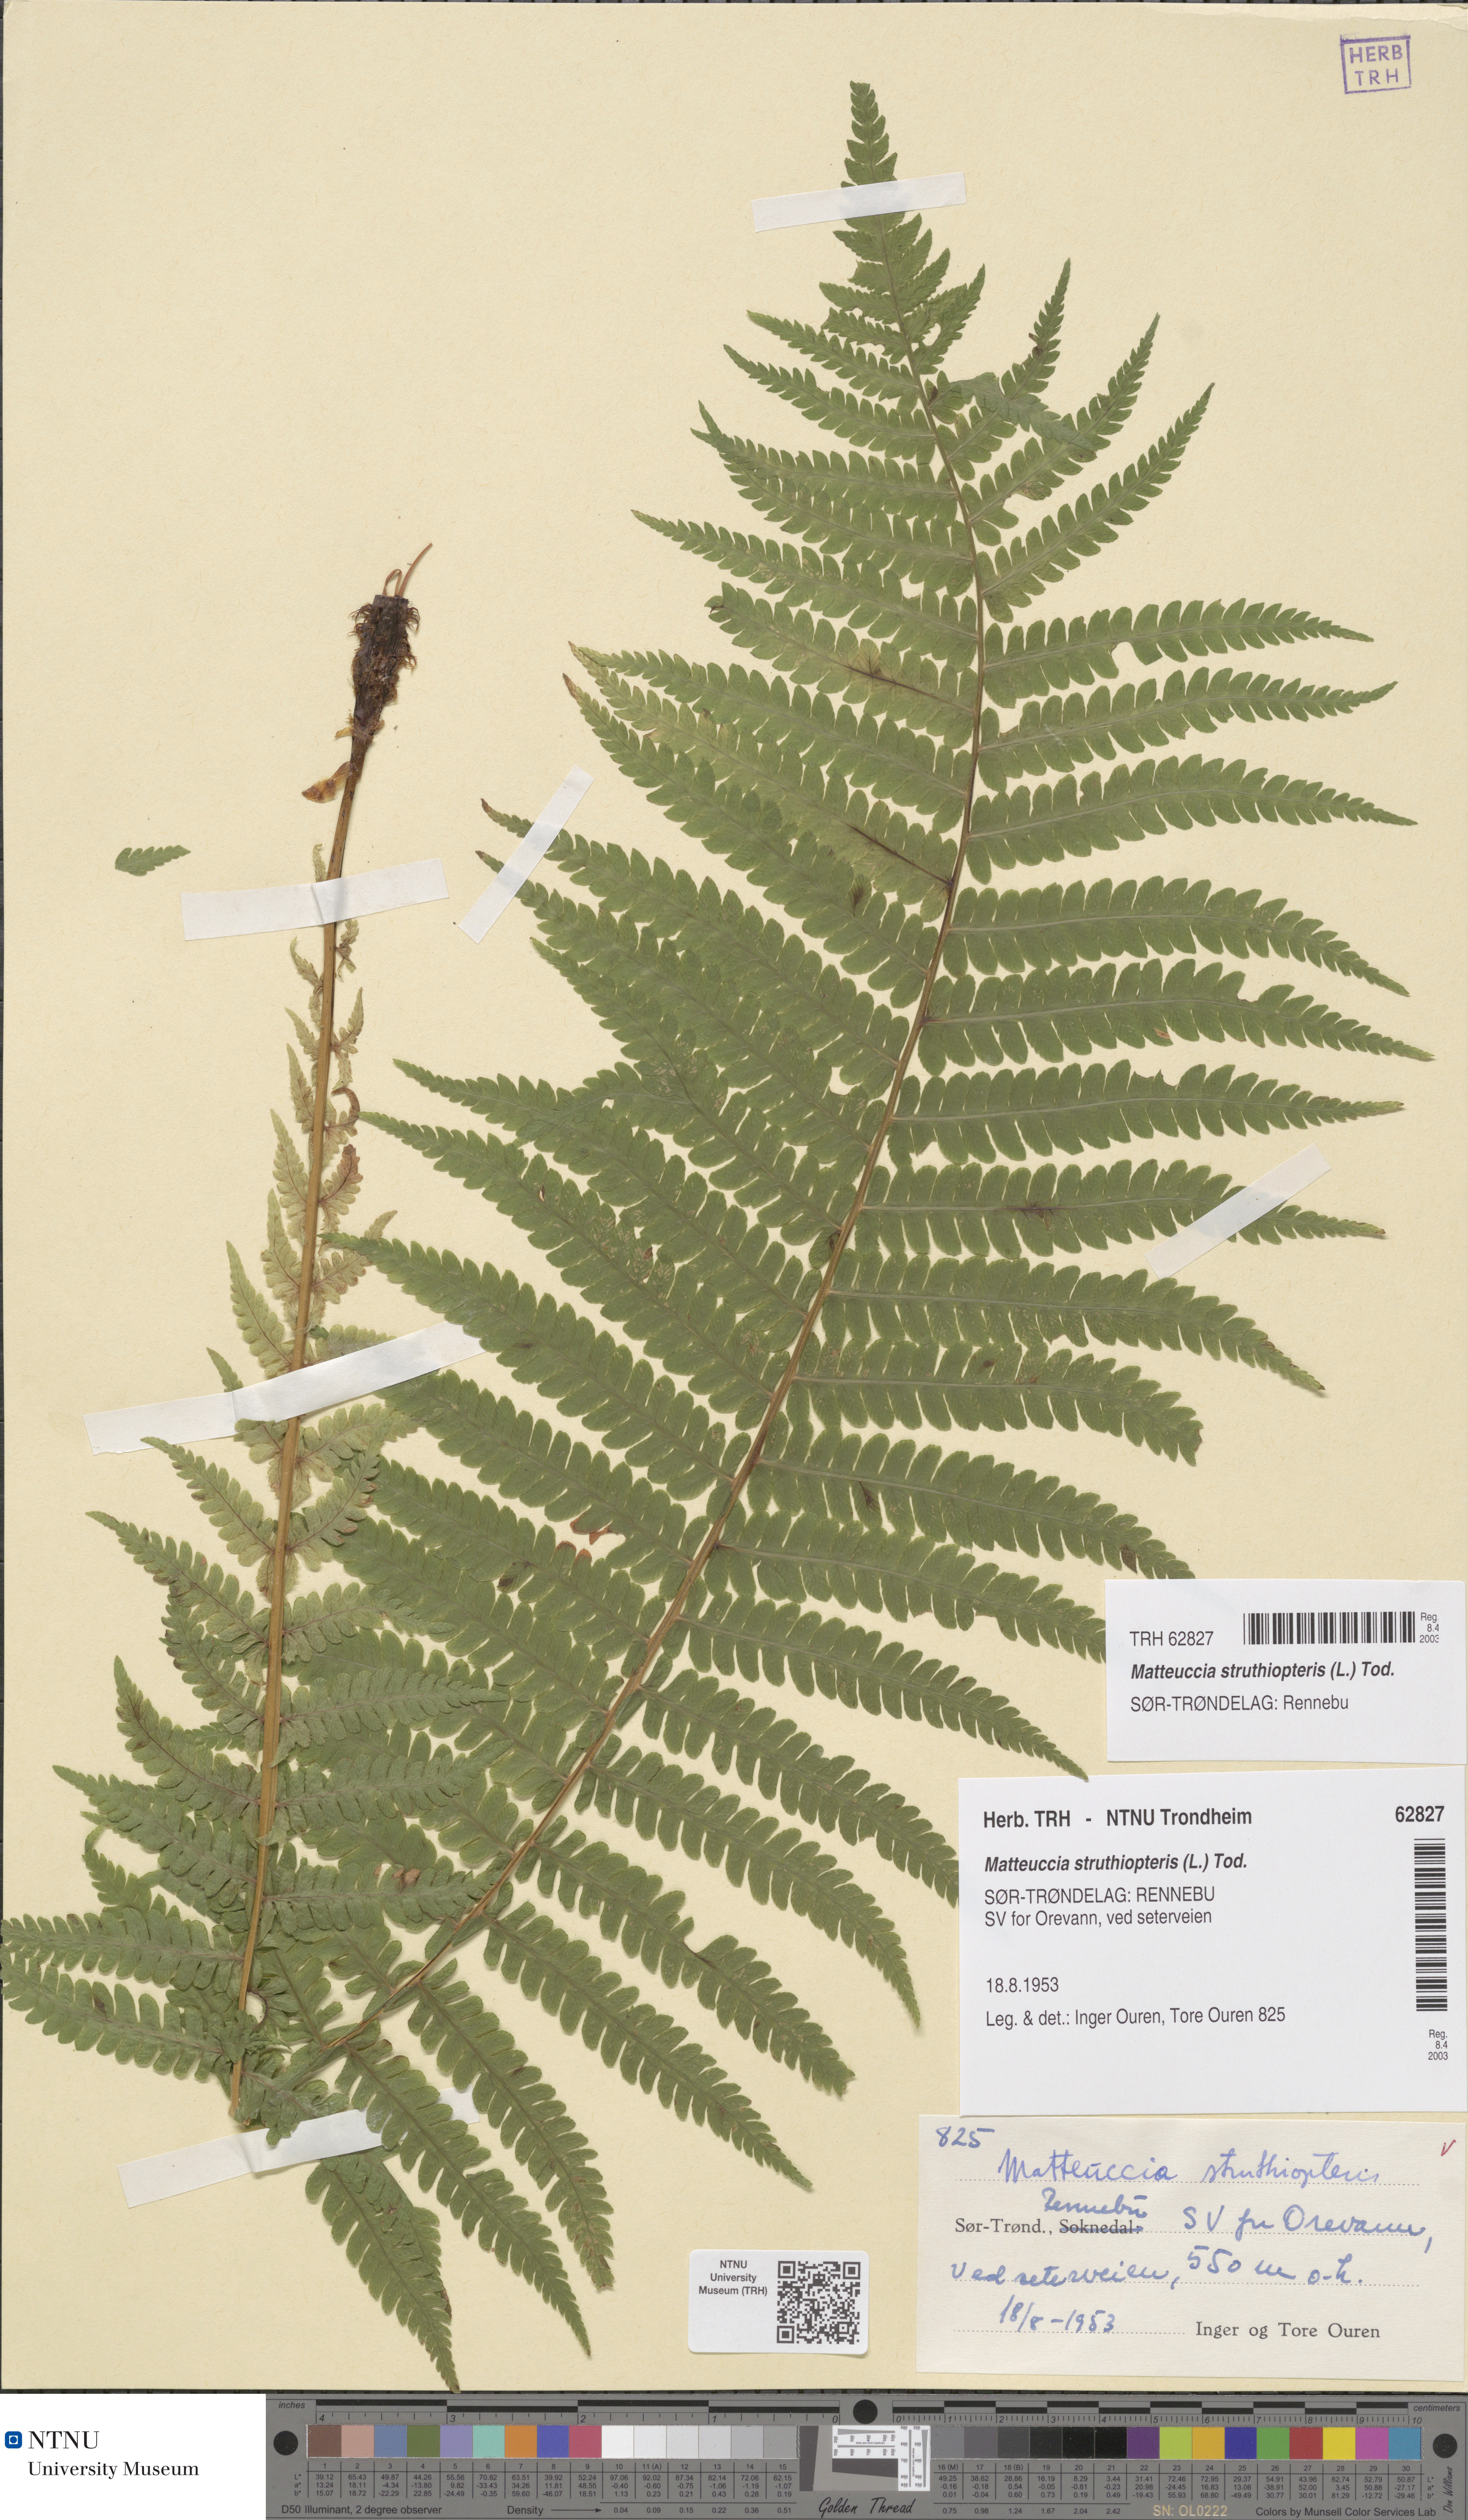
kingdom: Plantae
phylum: Tracheophyta
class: Polypodiopsida
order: Polypodiales
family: Onocleaceae
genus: Matteuccia
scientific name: Matteuccia struthiopteris
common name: Ostrich fern
